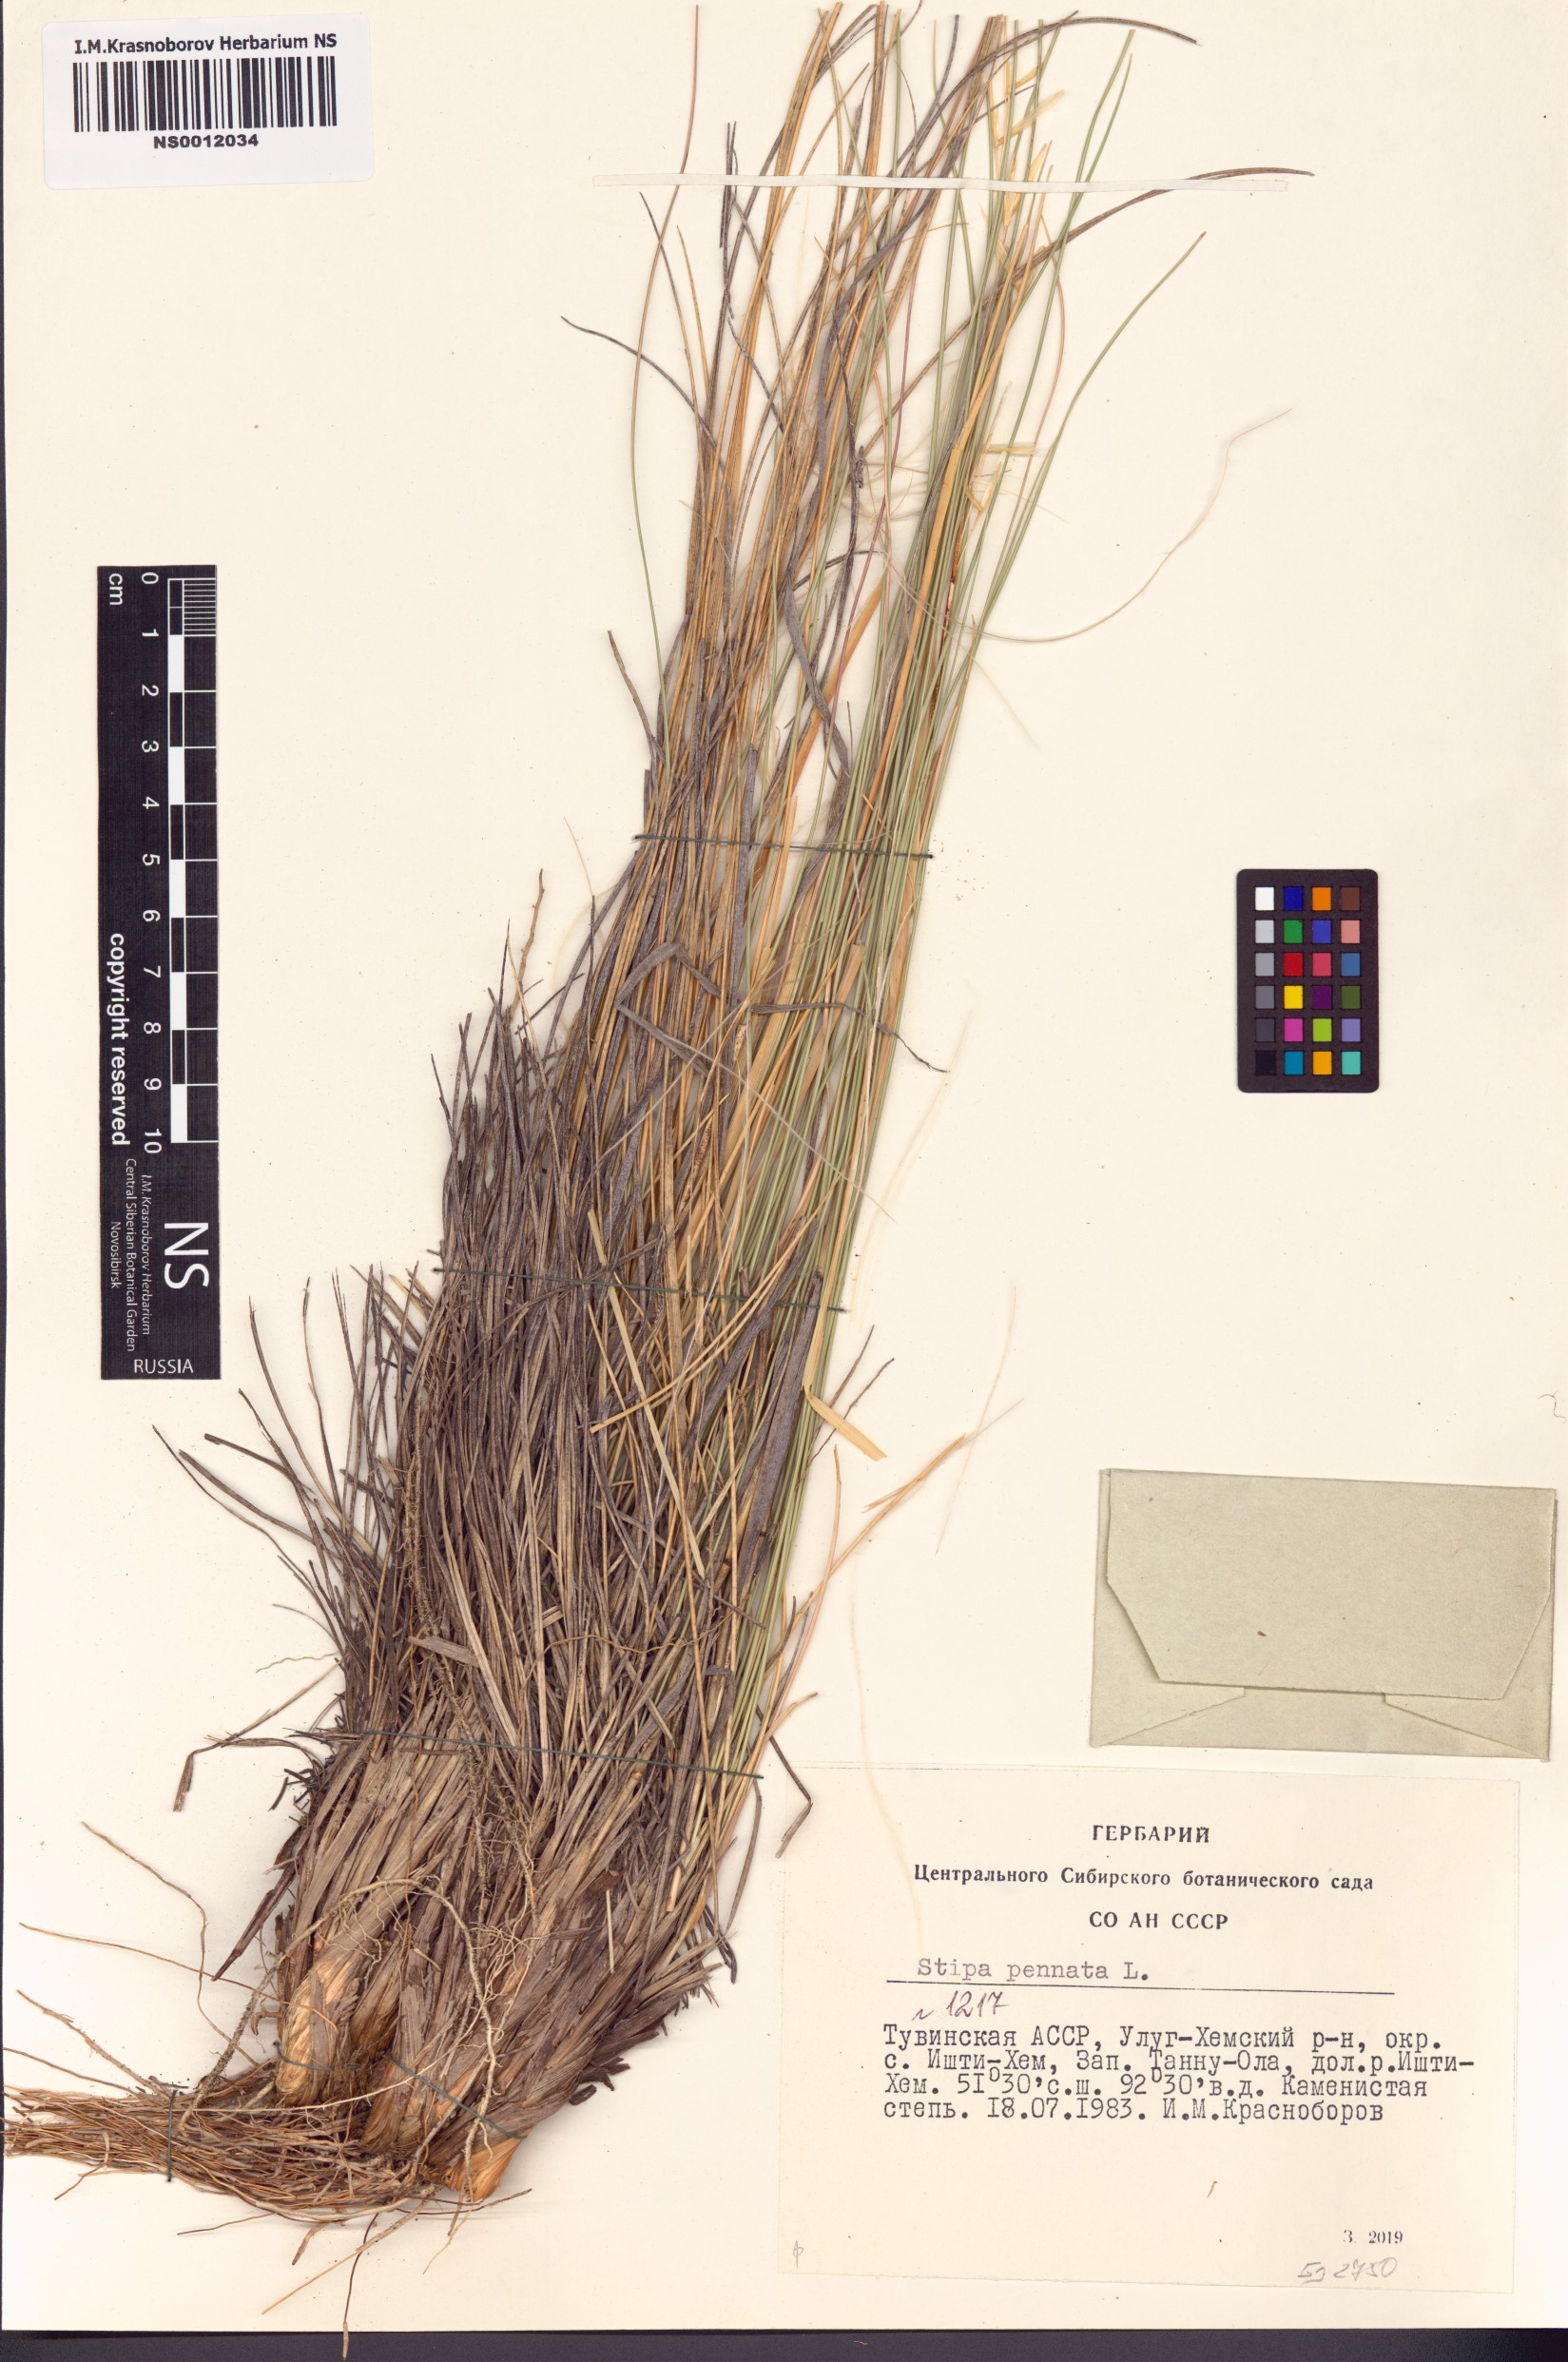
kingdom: Plantae
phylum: Tracheophyta
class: Liliopsida
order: Poales
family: Poaceae
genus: Stipa
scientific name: Stipa pennata
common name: European feather grass
